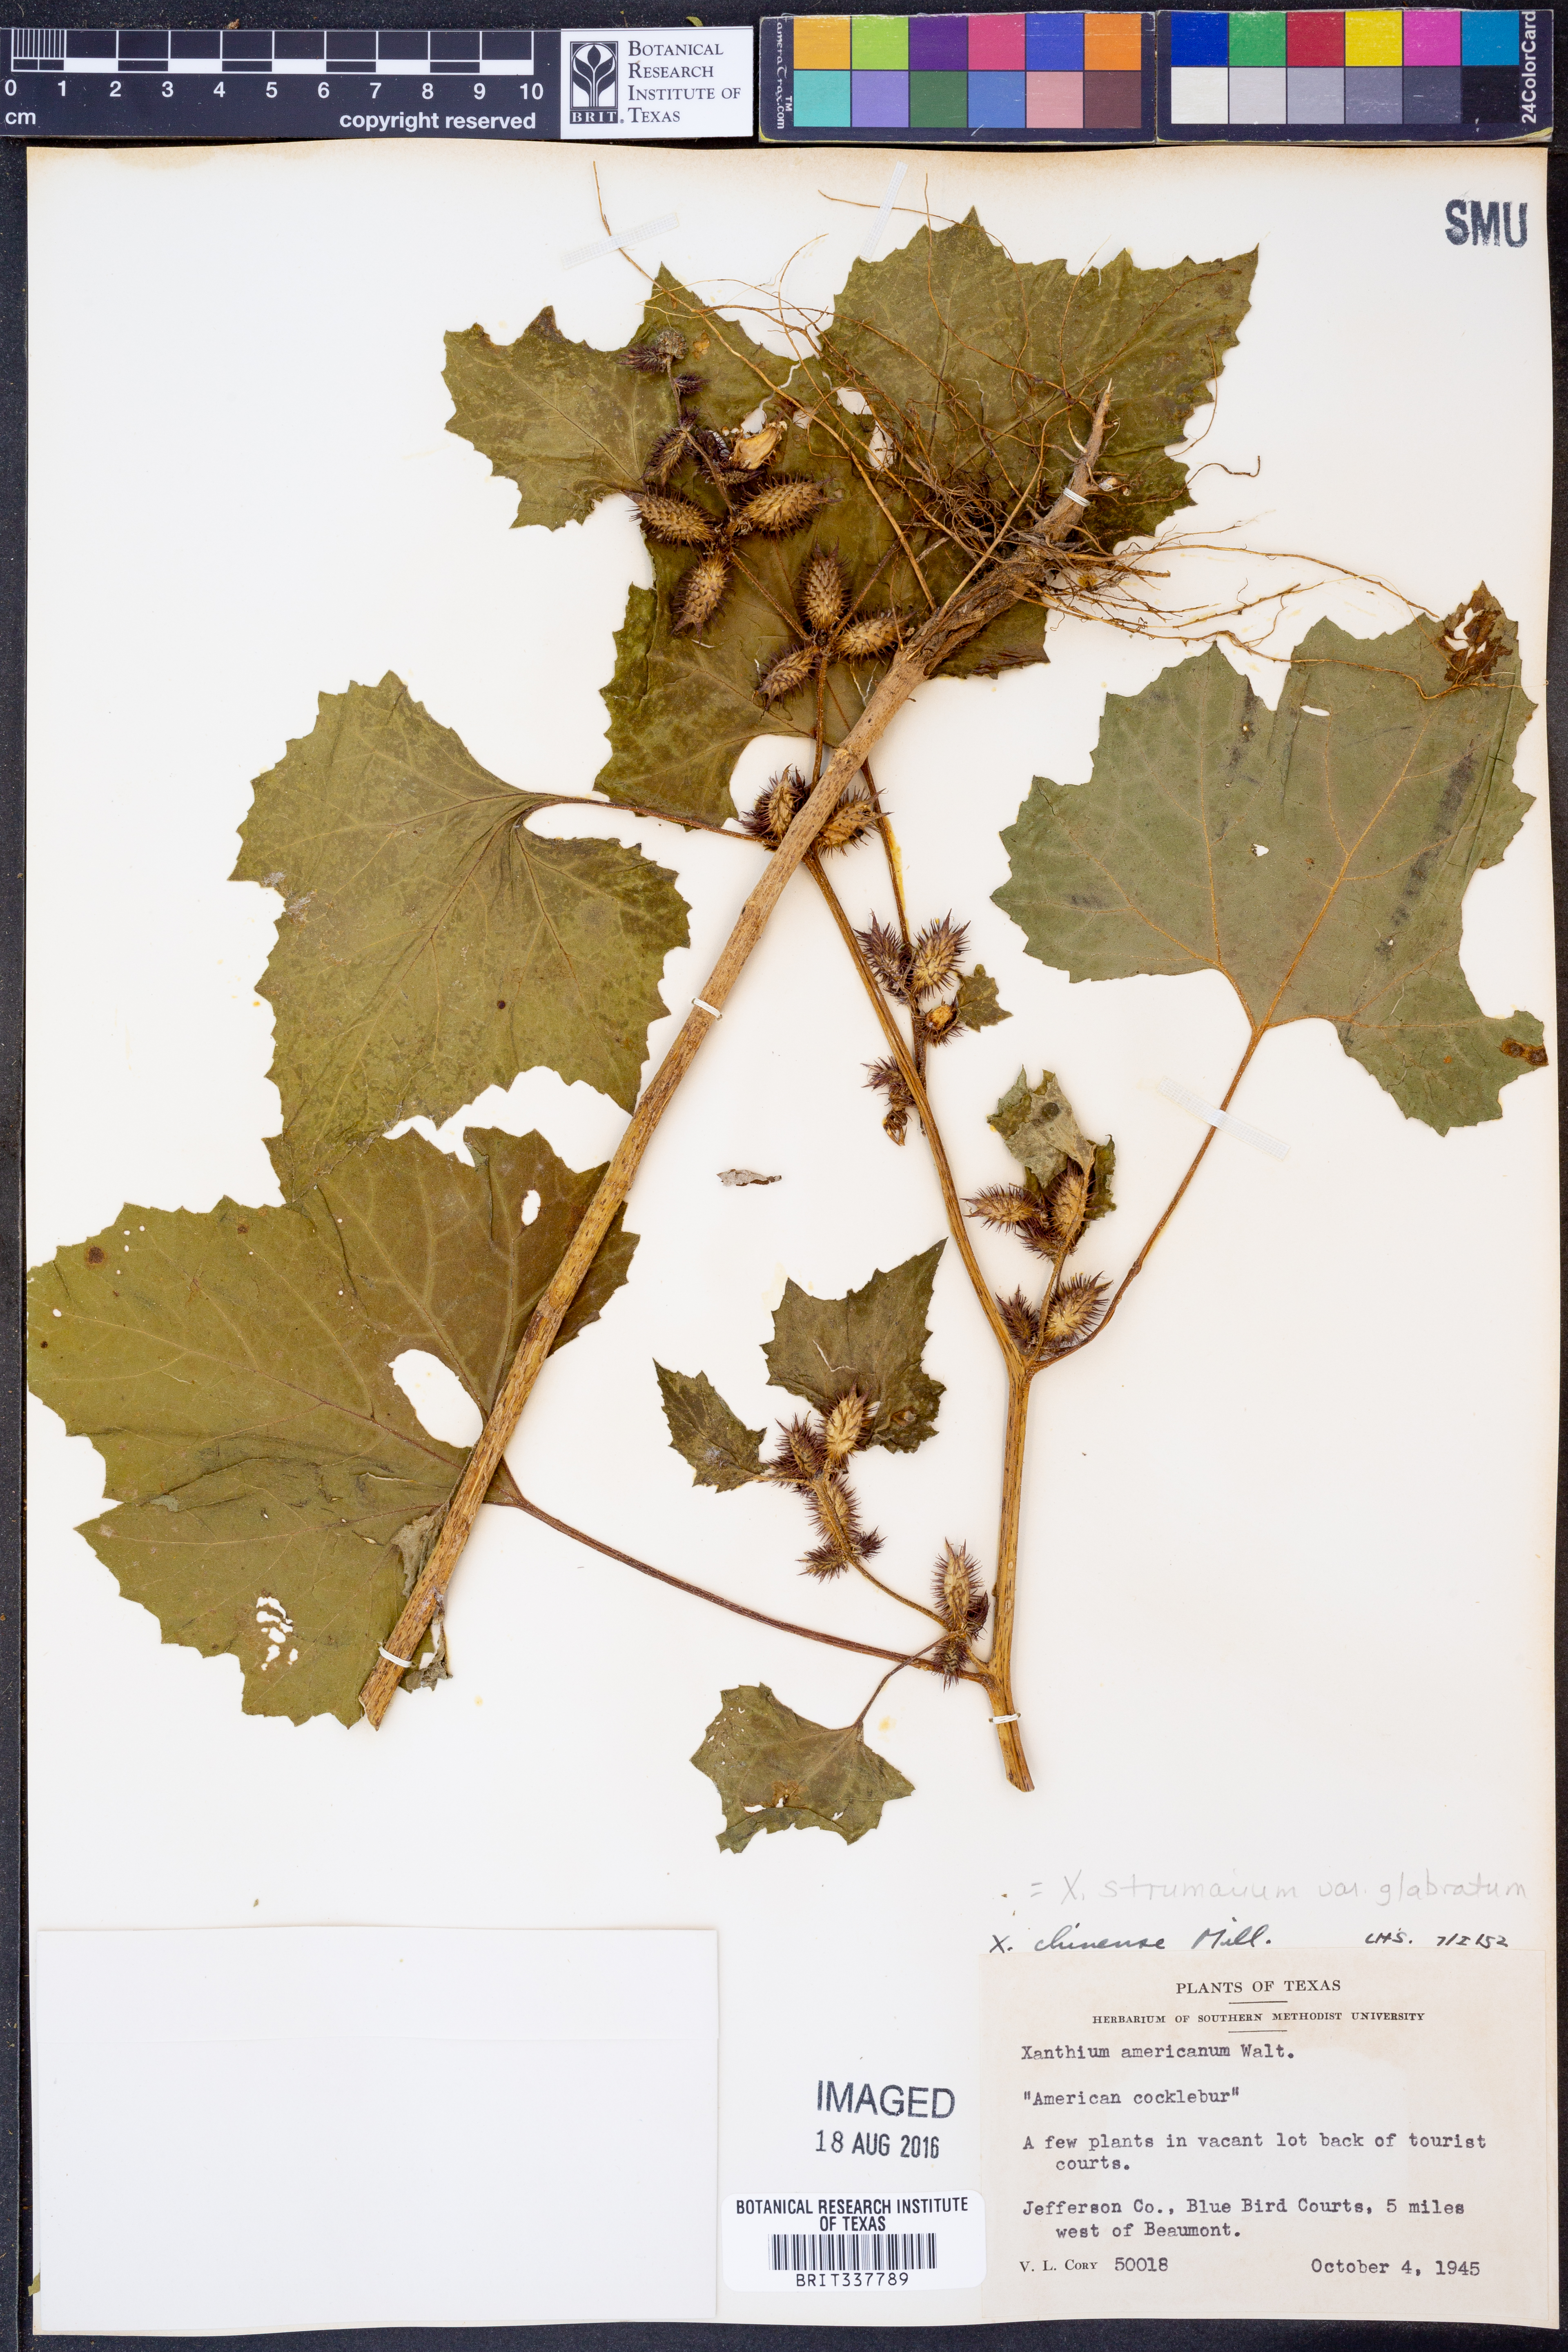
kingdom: Plantae
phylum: Tracheophyta
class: Magnoliopsida
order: Asterales
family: Asteraceae
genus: Xanthium
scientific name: Xanthium occidentale
